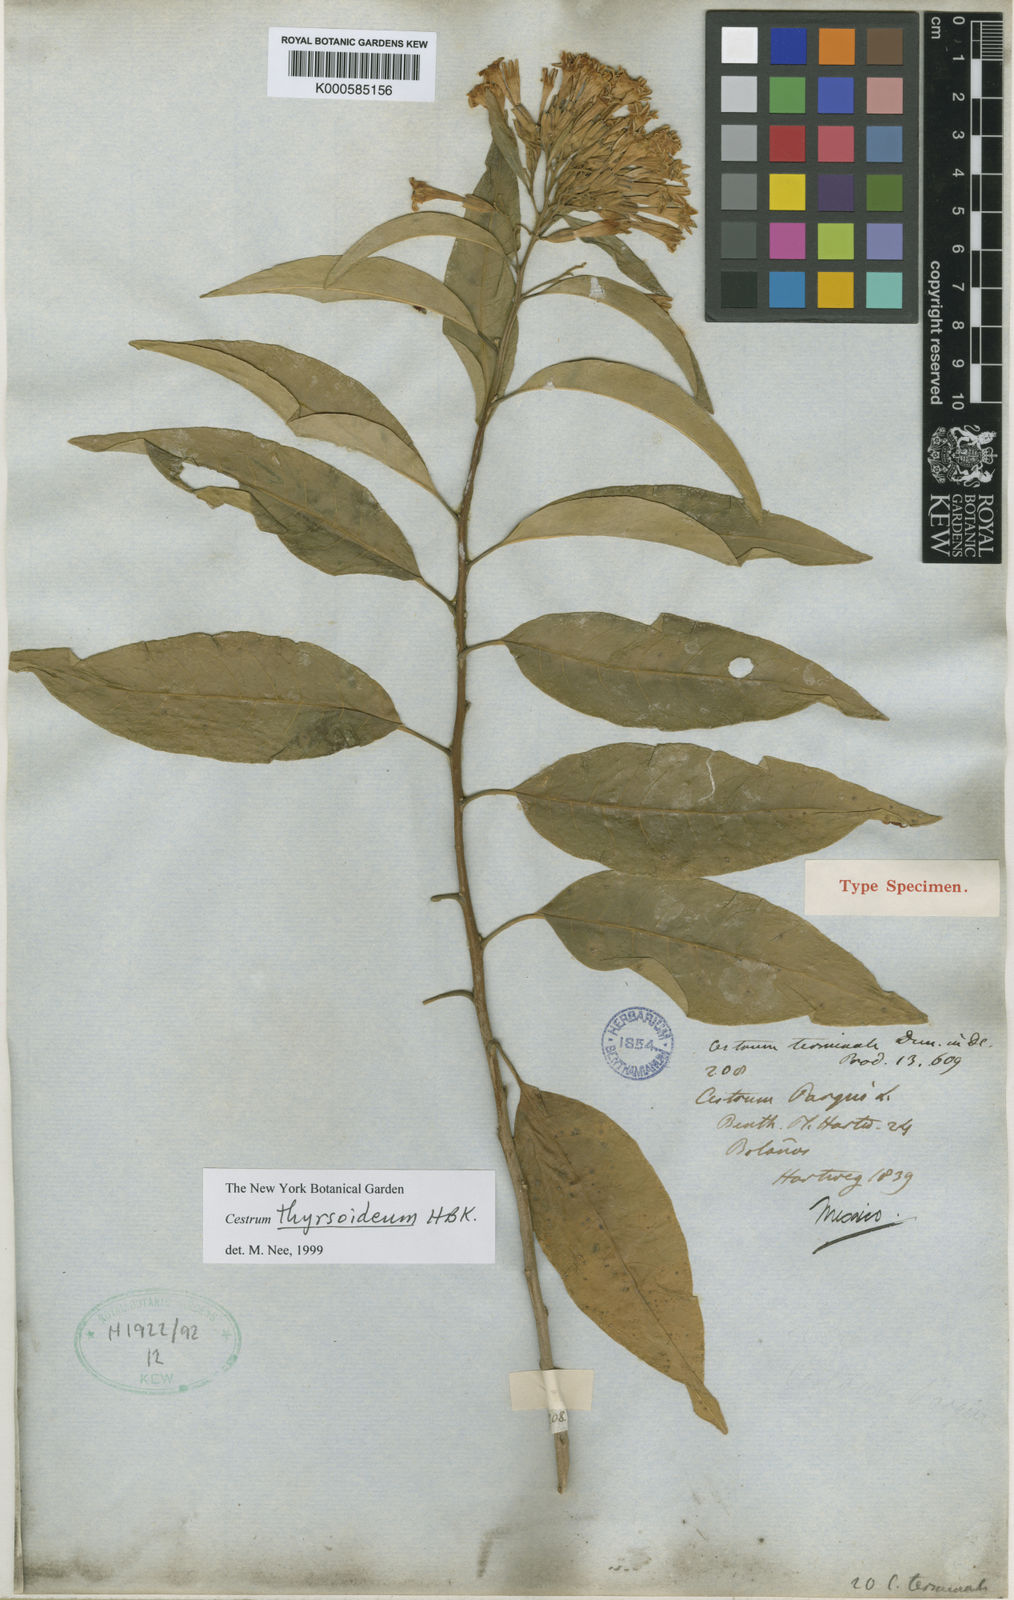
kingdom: Plantae
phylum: Tracheophyta
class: Magnoliopsida
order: Solanales
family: Solanaceae
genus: Cestrum
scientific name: Cestrum
